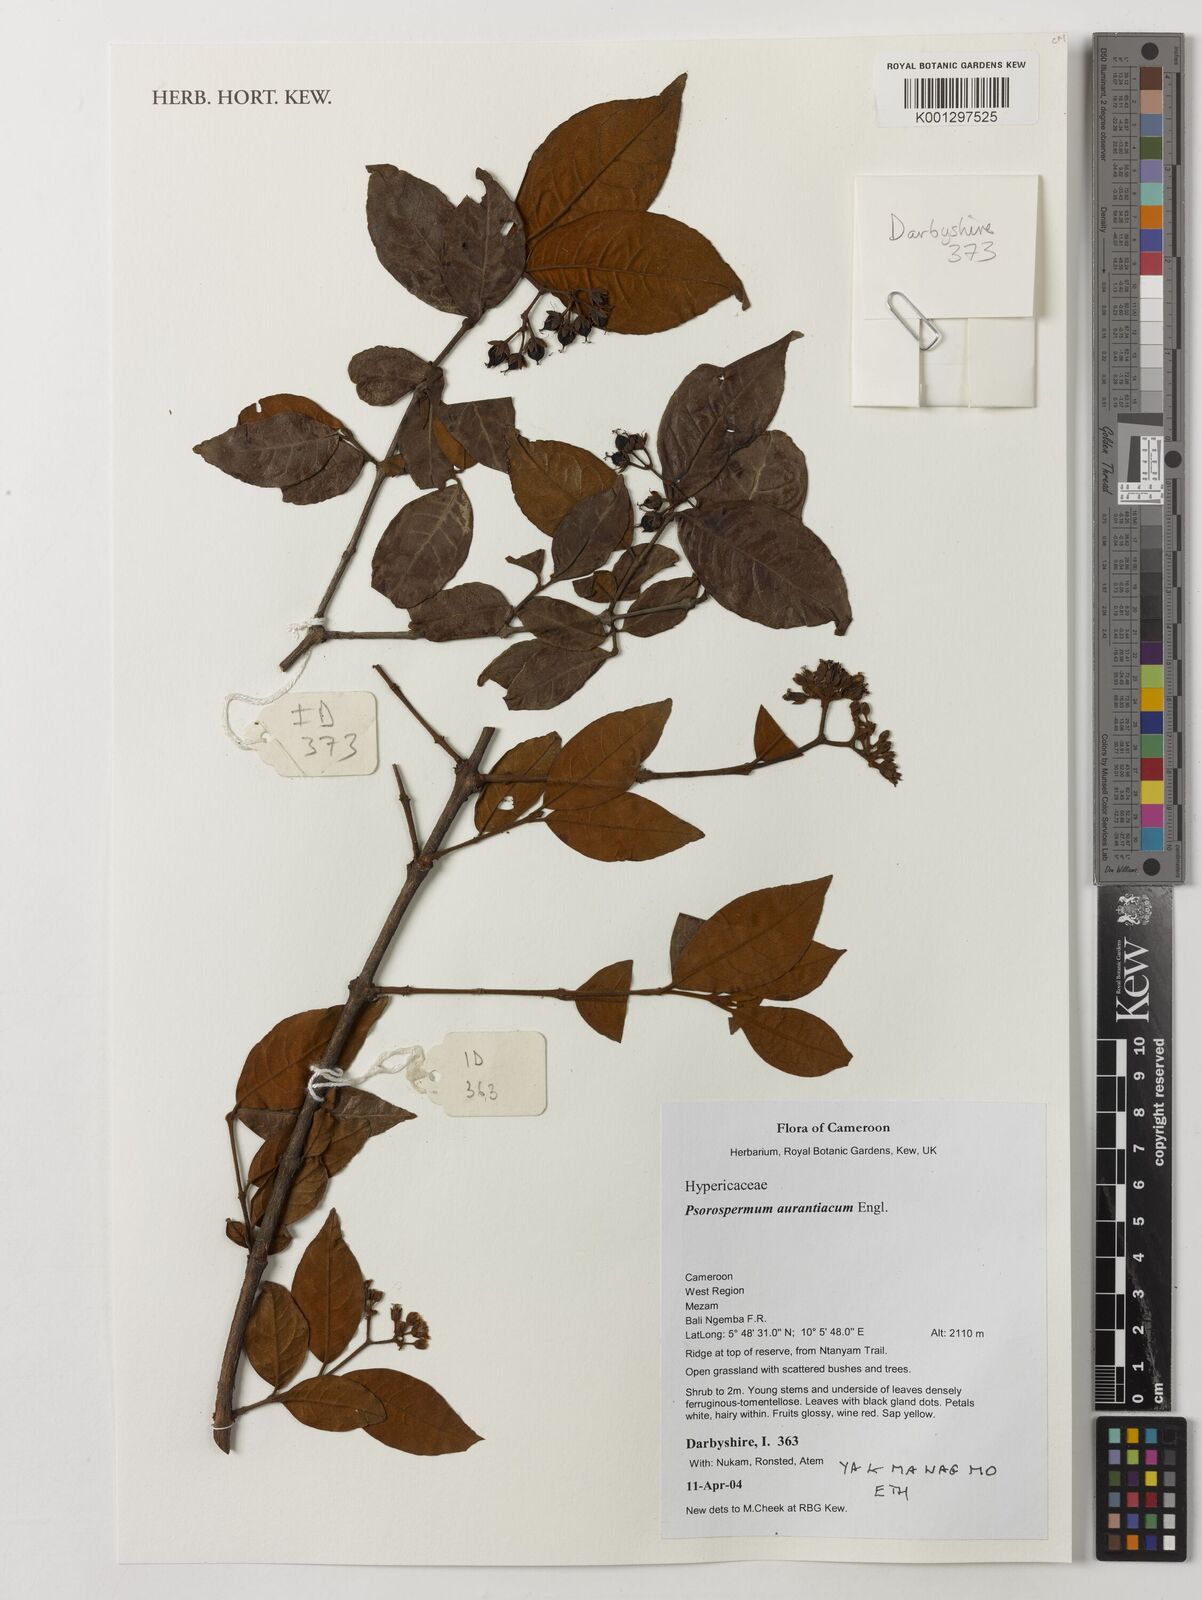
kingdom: Plantae
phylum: Tracheophyta
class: Magnoliopsida
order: Malpighiales
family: Hypericaceae
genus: Psorospermum
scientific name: Psorospermum aurantiacum
